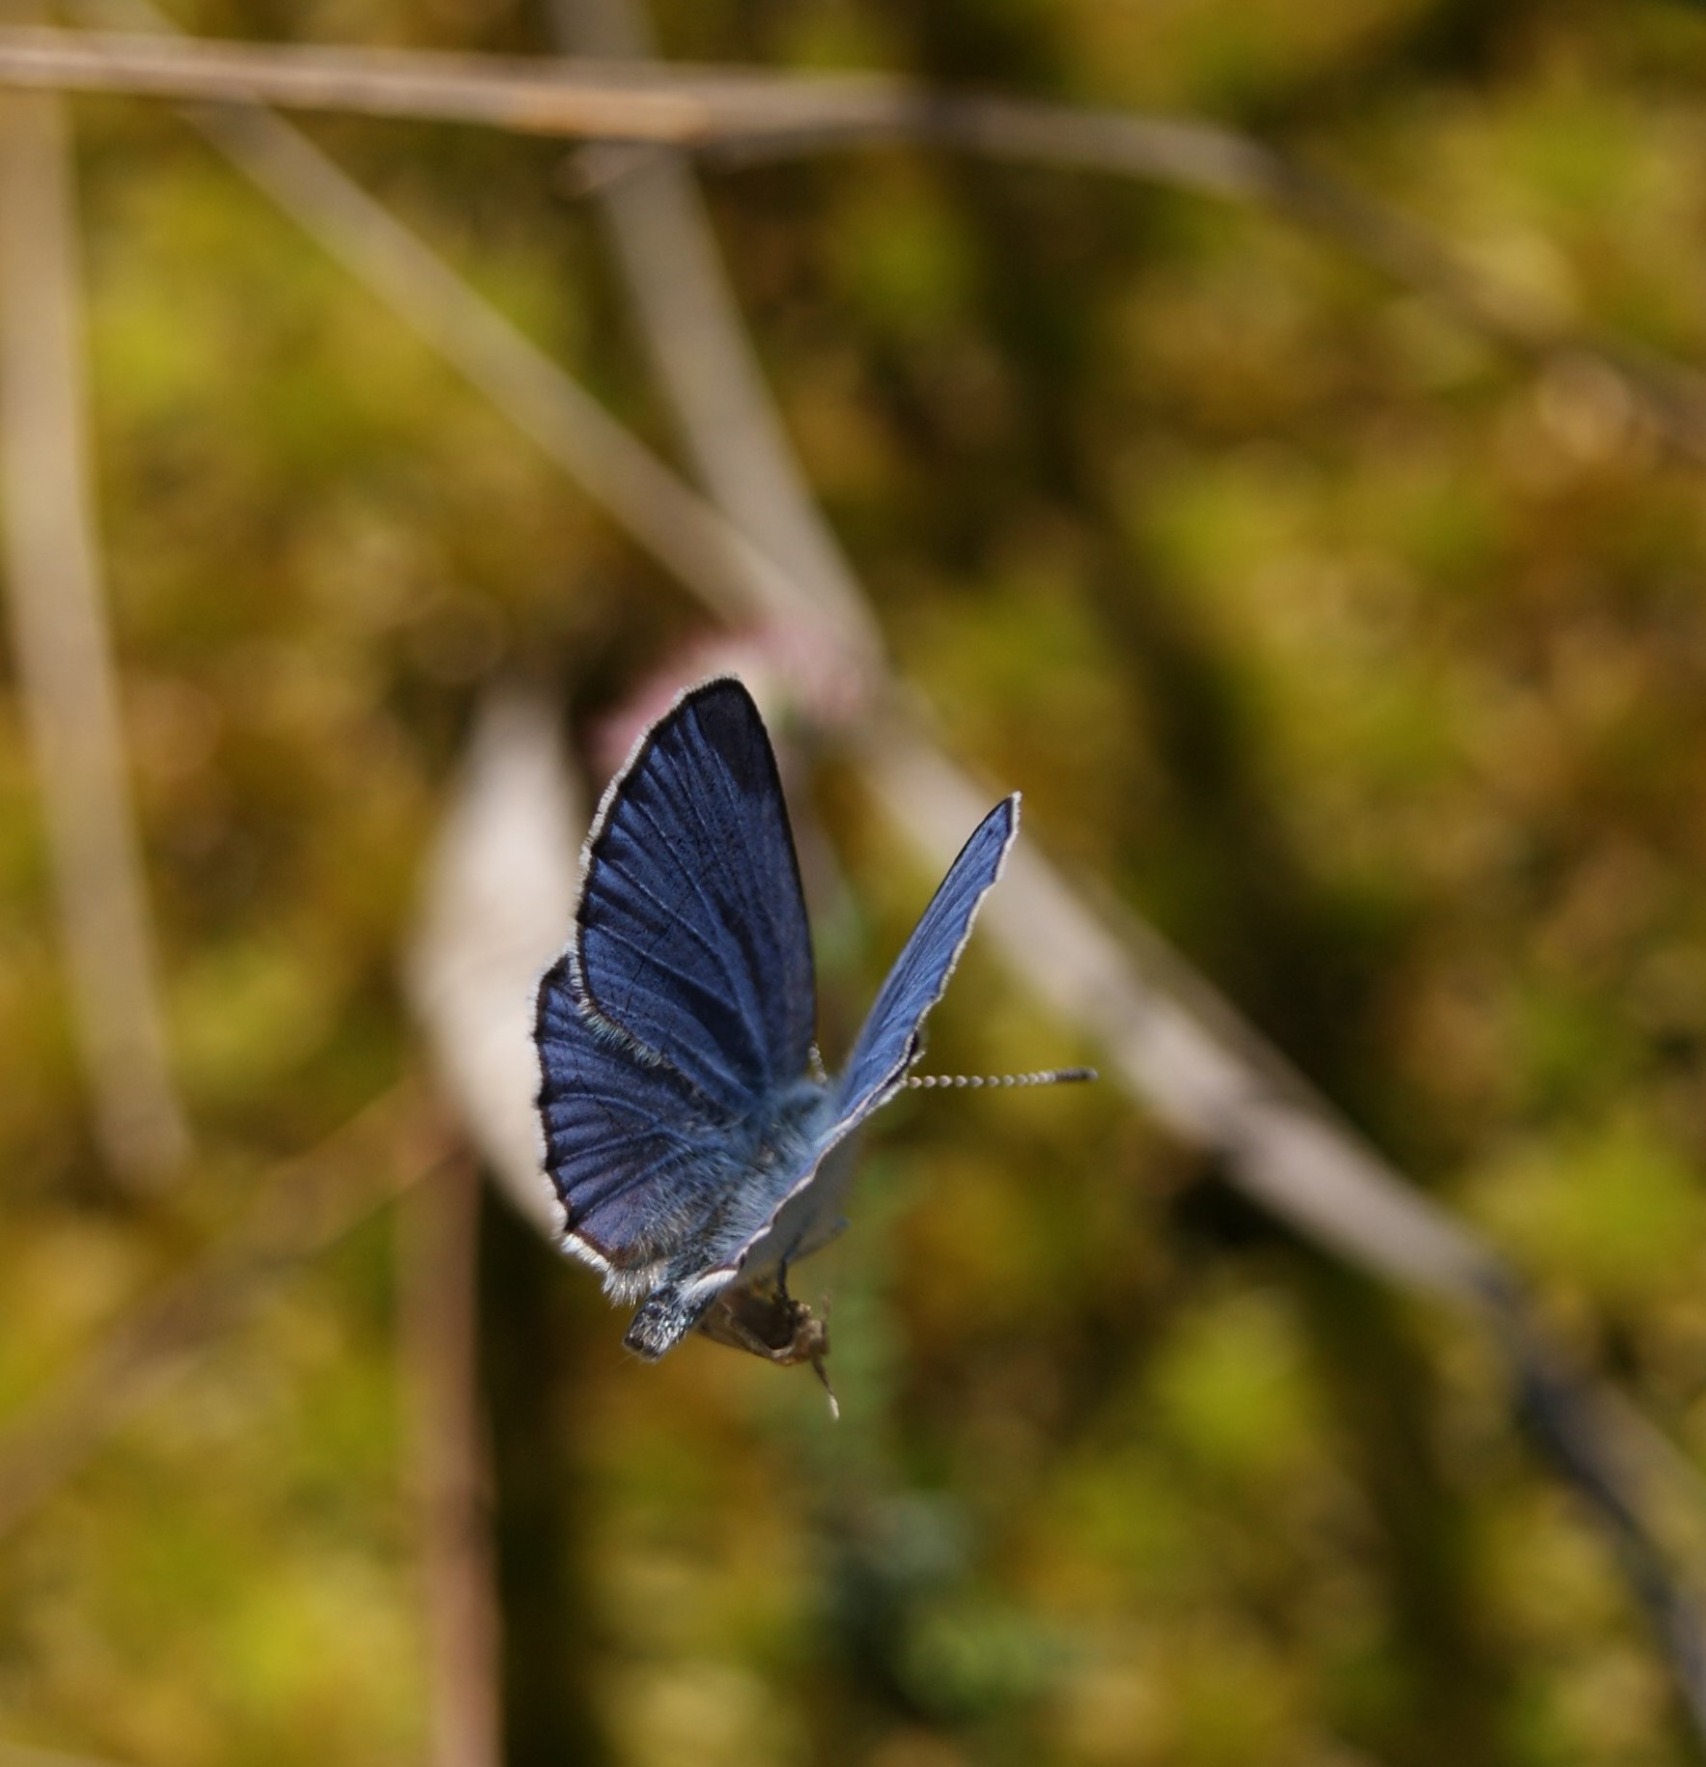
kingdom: Animalia
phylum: Arthropoda
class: Insecta
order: Lepidoptera
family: Lycaenidae
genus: Vacciniina
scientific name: Vacciniina optilete
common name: Bølleblåfugl
